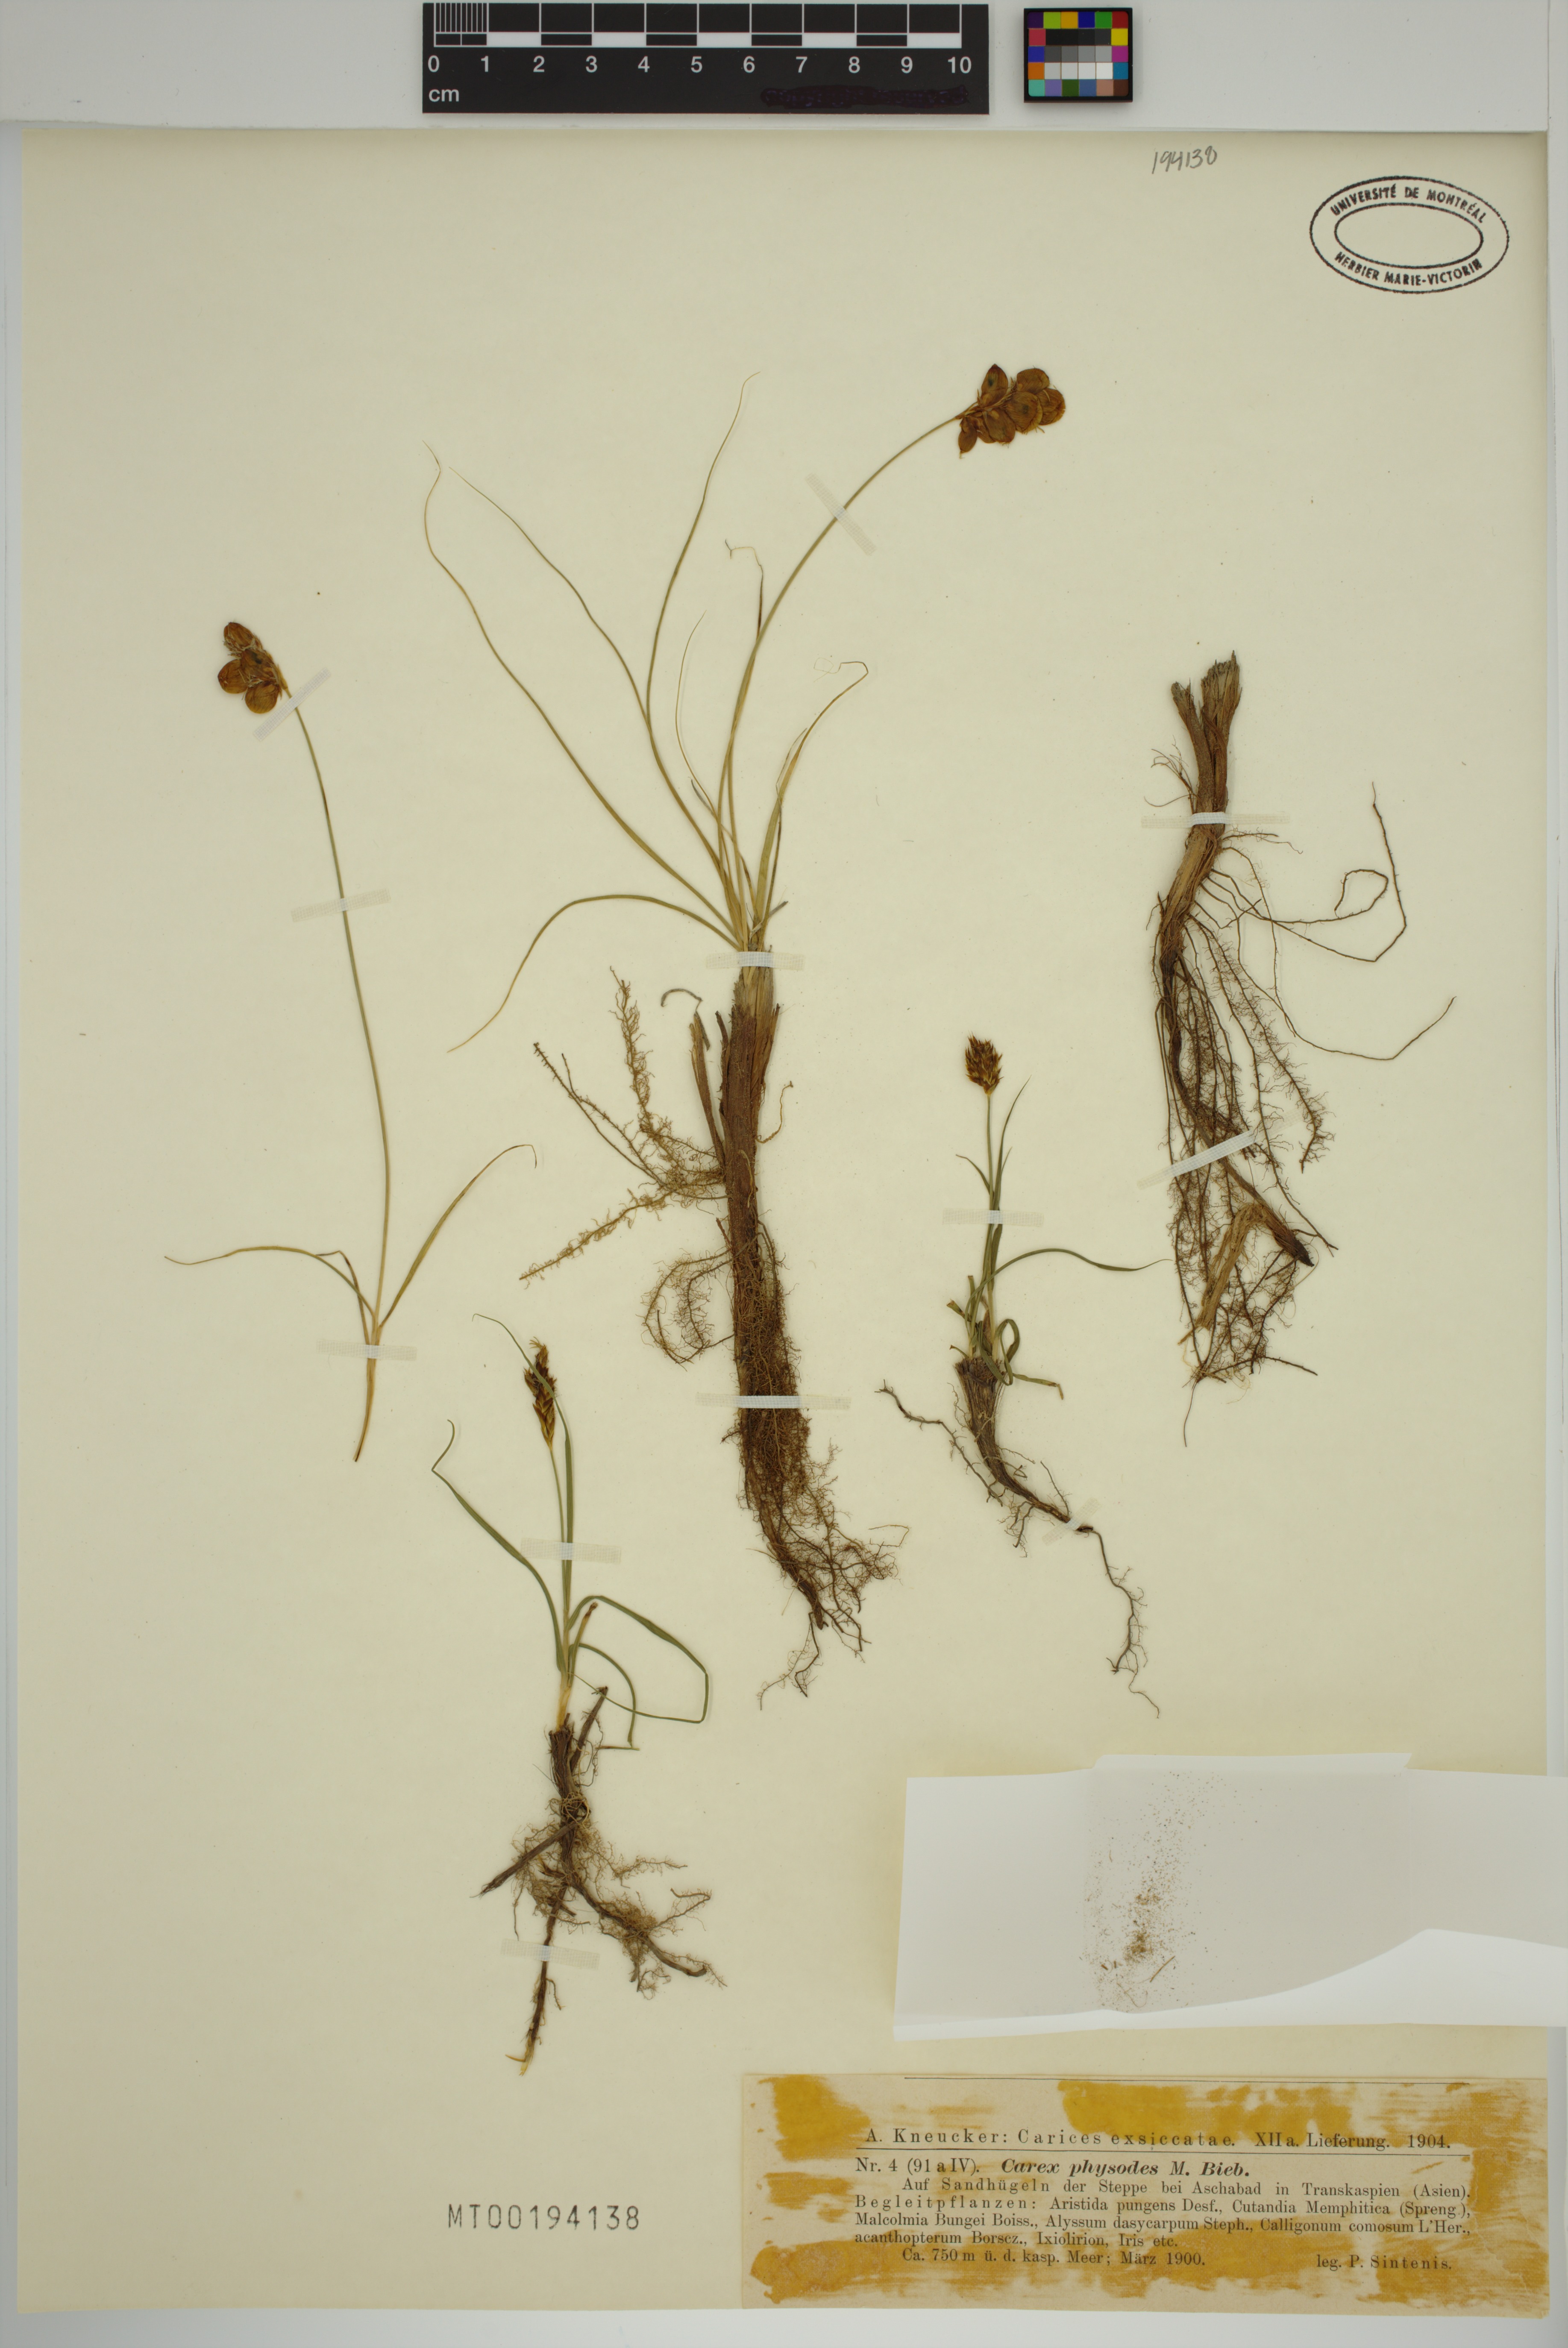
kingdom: Plantae
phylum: Tracheophyta
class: Liliopsida
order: Poales
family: Cyperaceae
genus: Carex
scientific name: Carex physodes
